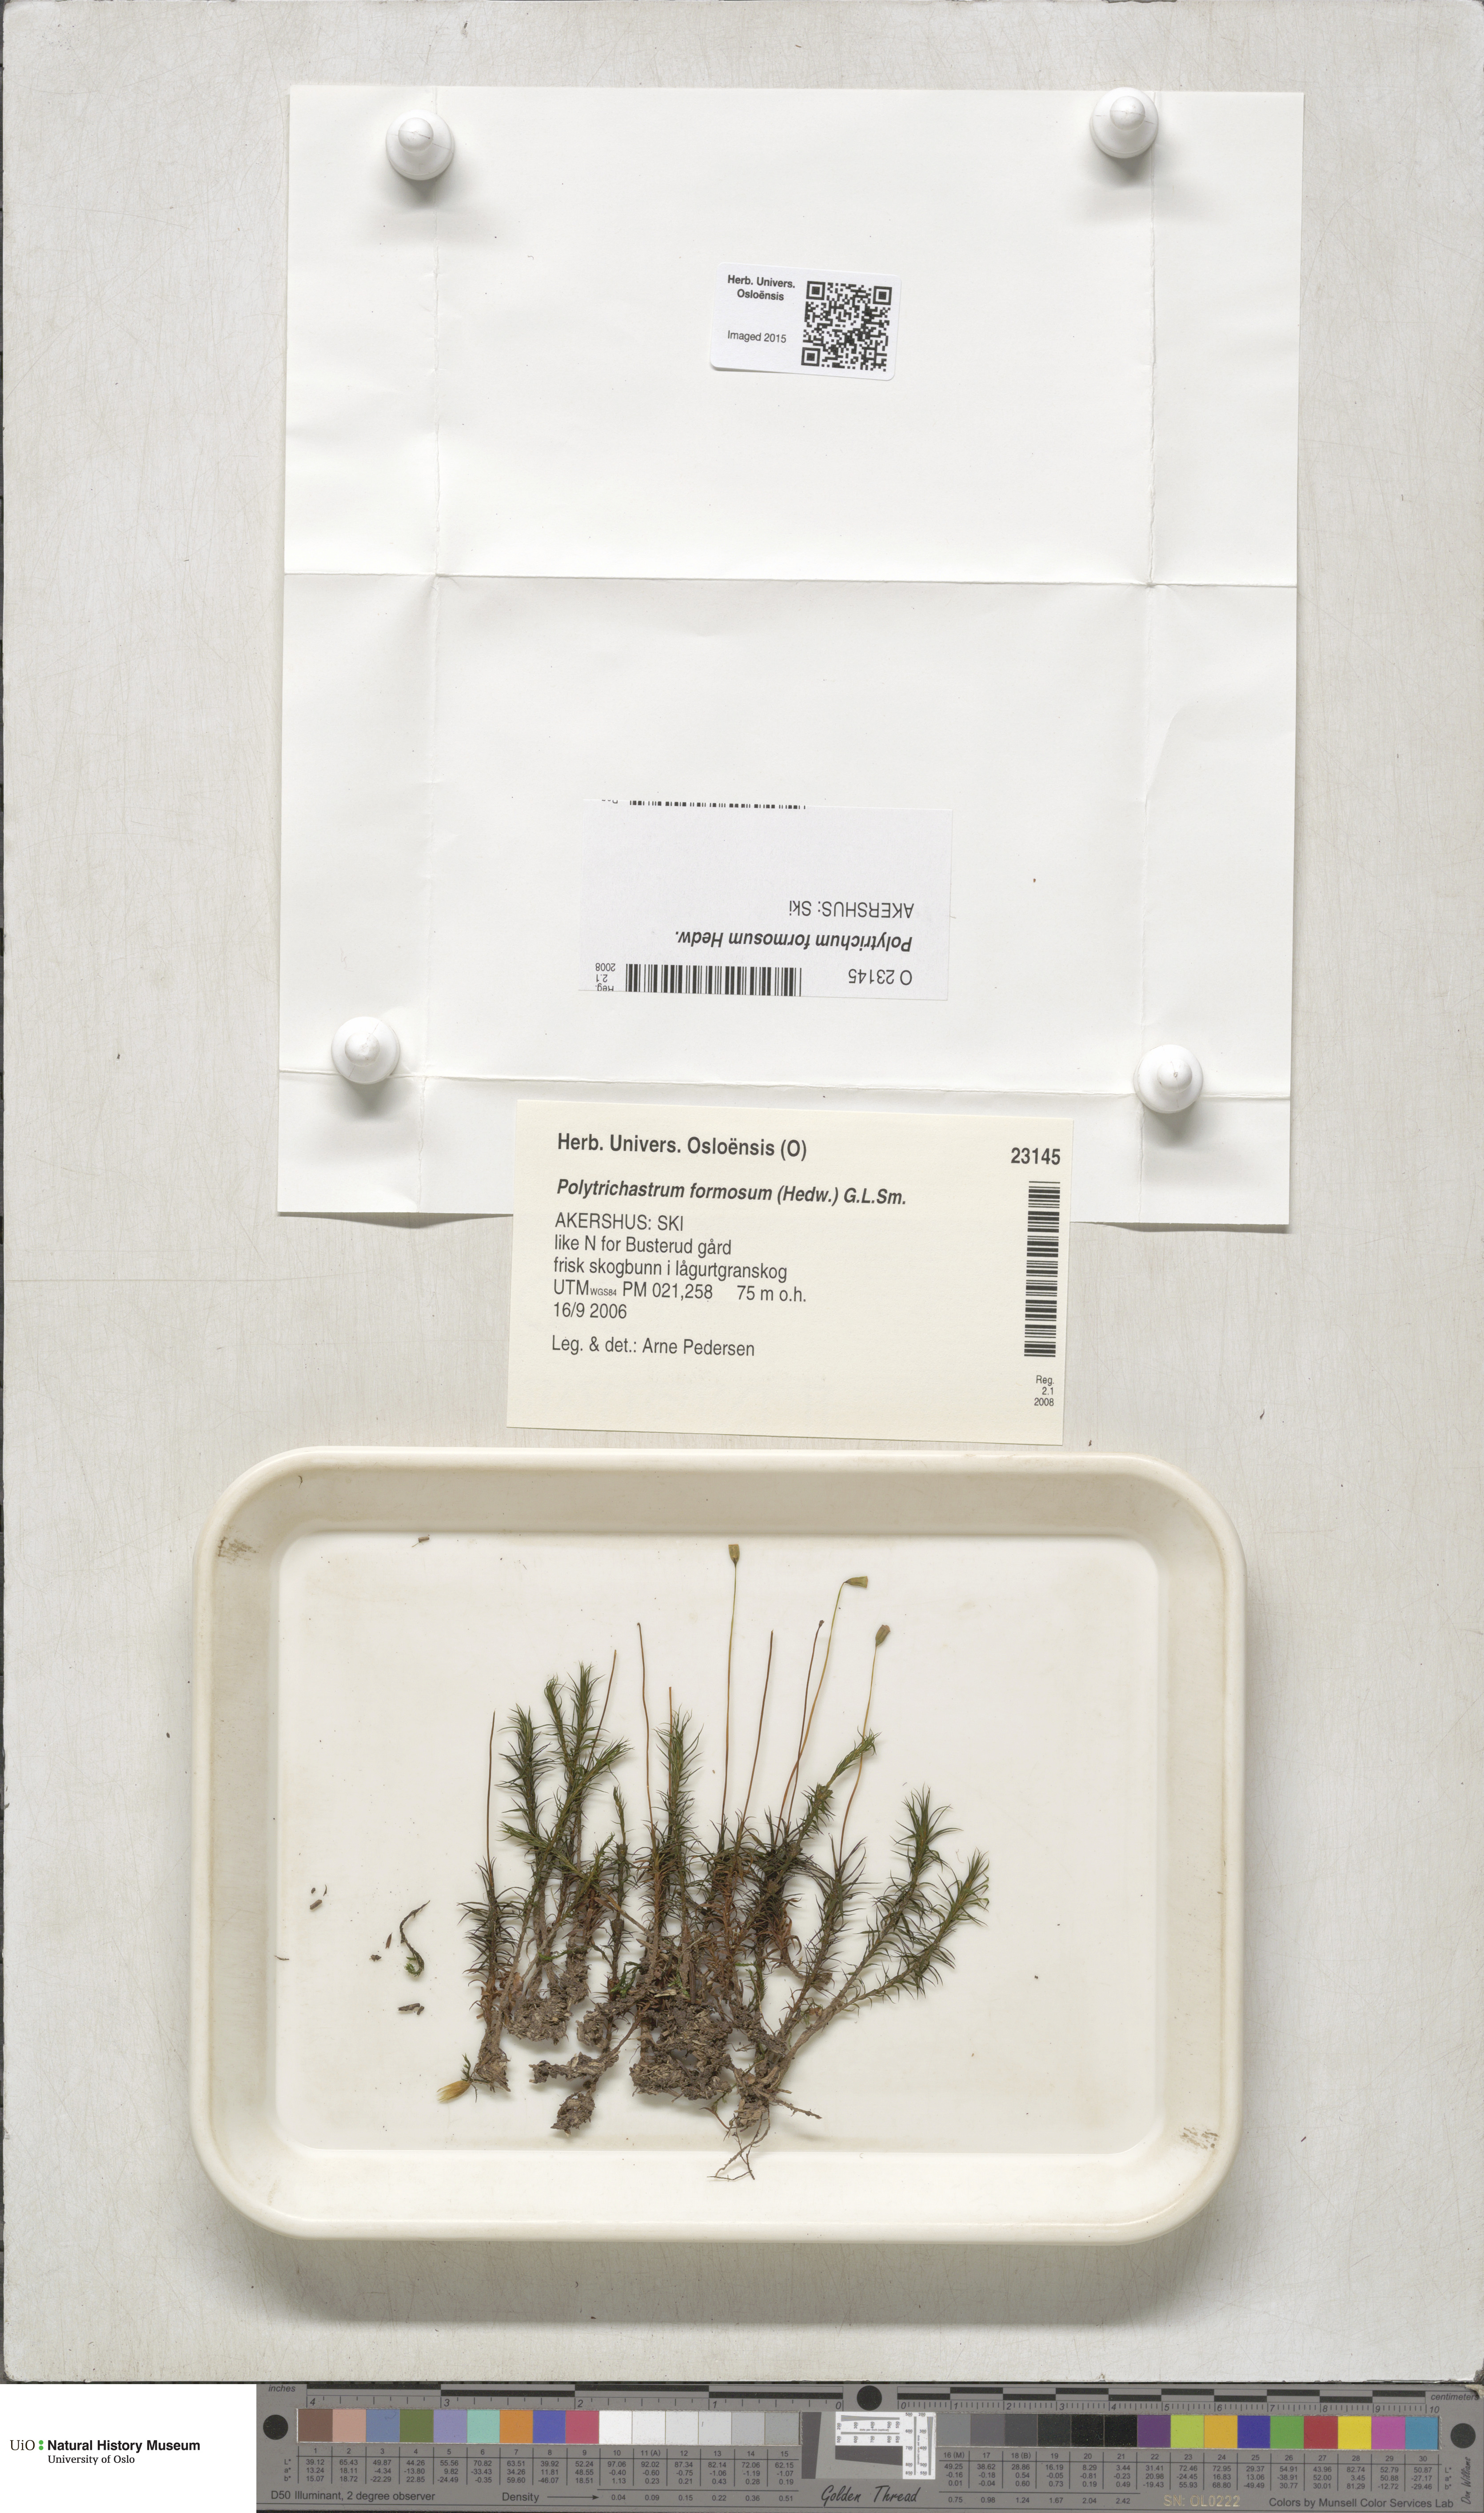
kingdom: Plantae
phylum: Bryophyta
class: Polytrichopsida
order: Polytrichales
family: Polytrichaceae
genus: Polytrichum
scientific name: Polytrichum formosum
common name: Bank haircap moss
